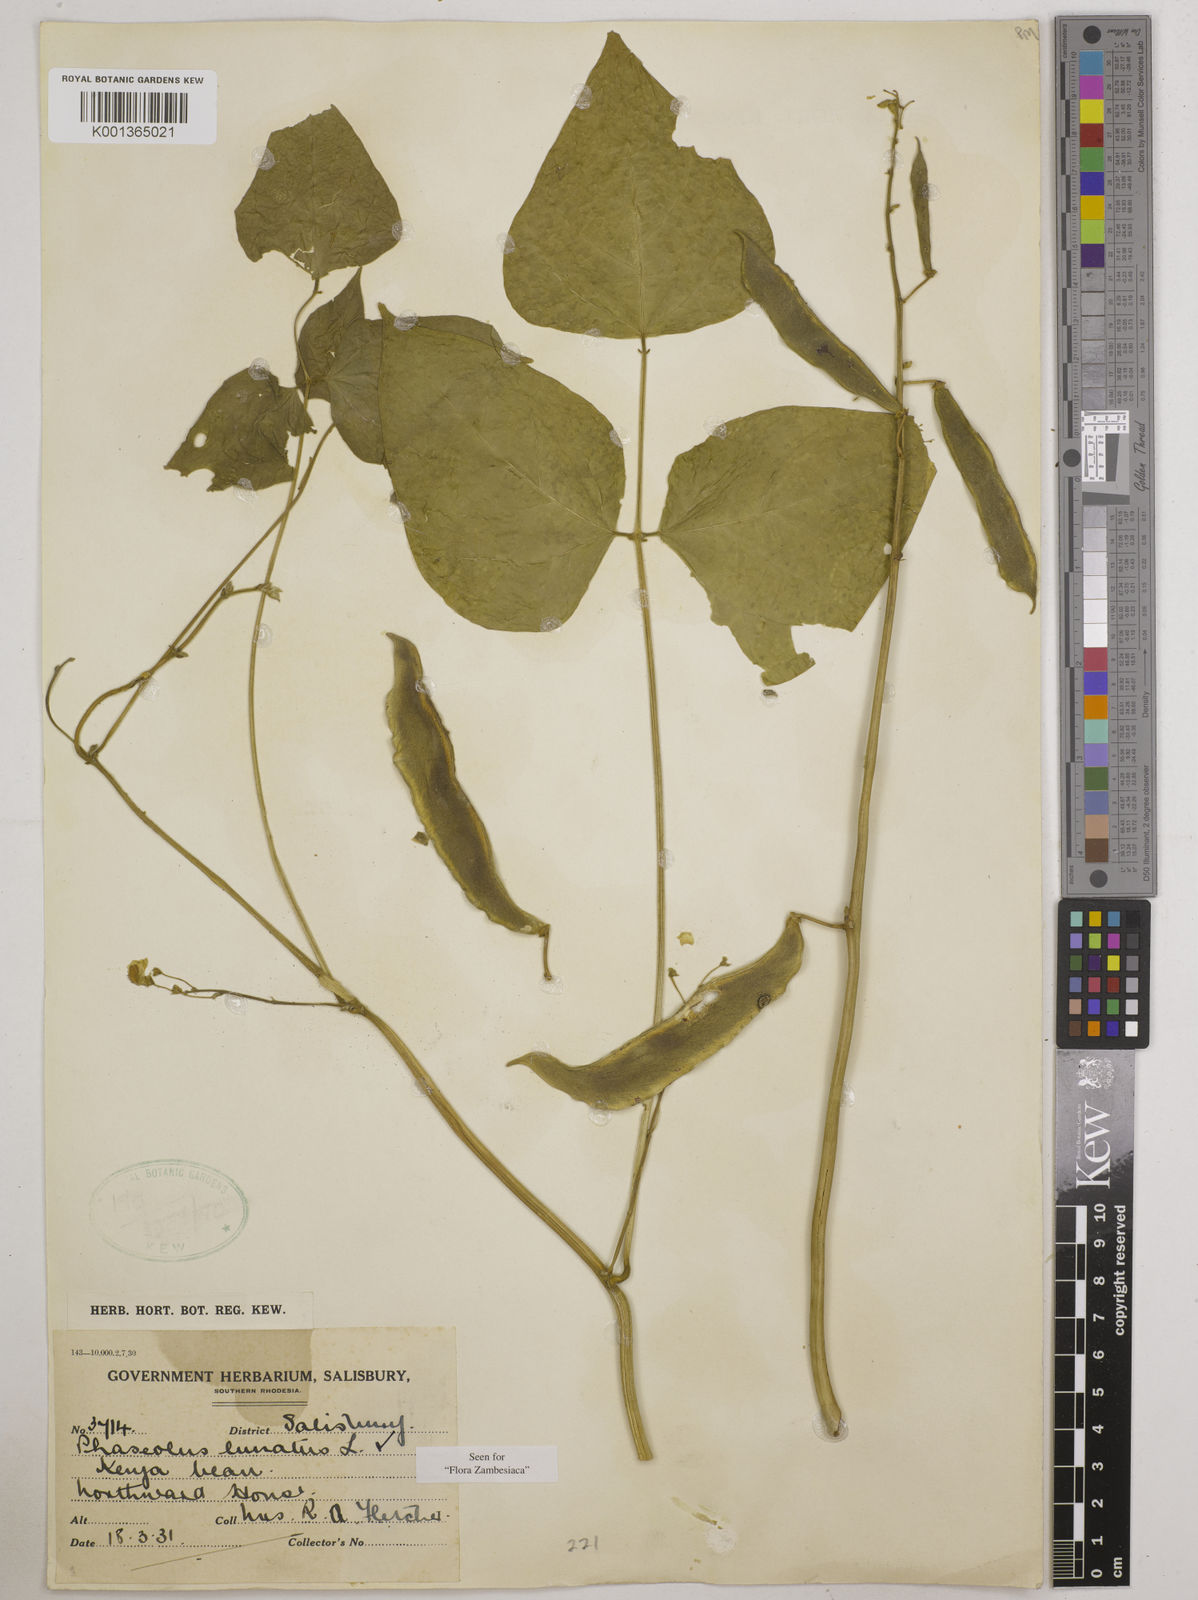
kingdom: Plantae
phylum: Tracheophyta
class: Magnoliopsida
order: Fabales
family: Fabaceae
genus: Phaseolus
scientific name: Phaseolus lunatus
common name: Sieva bean
